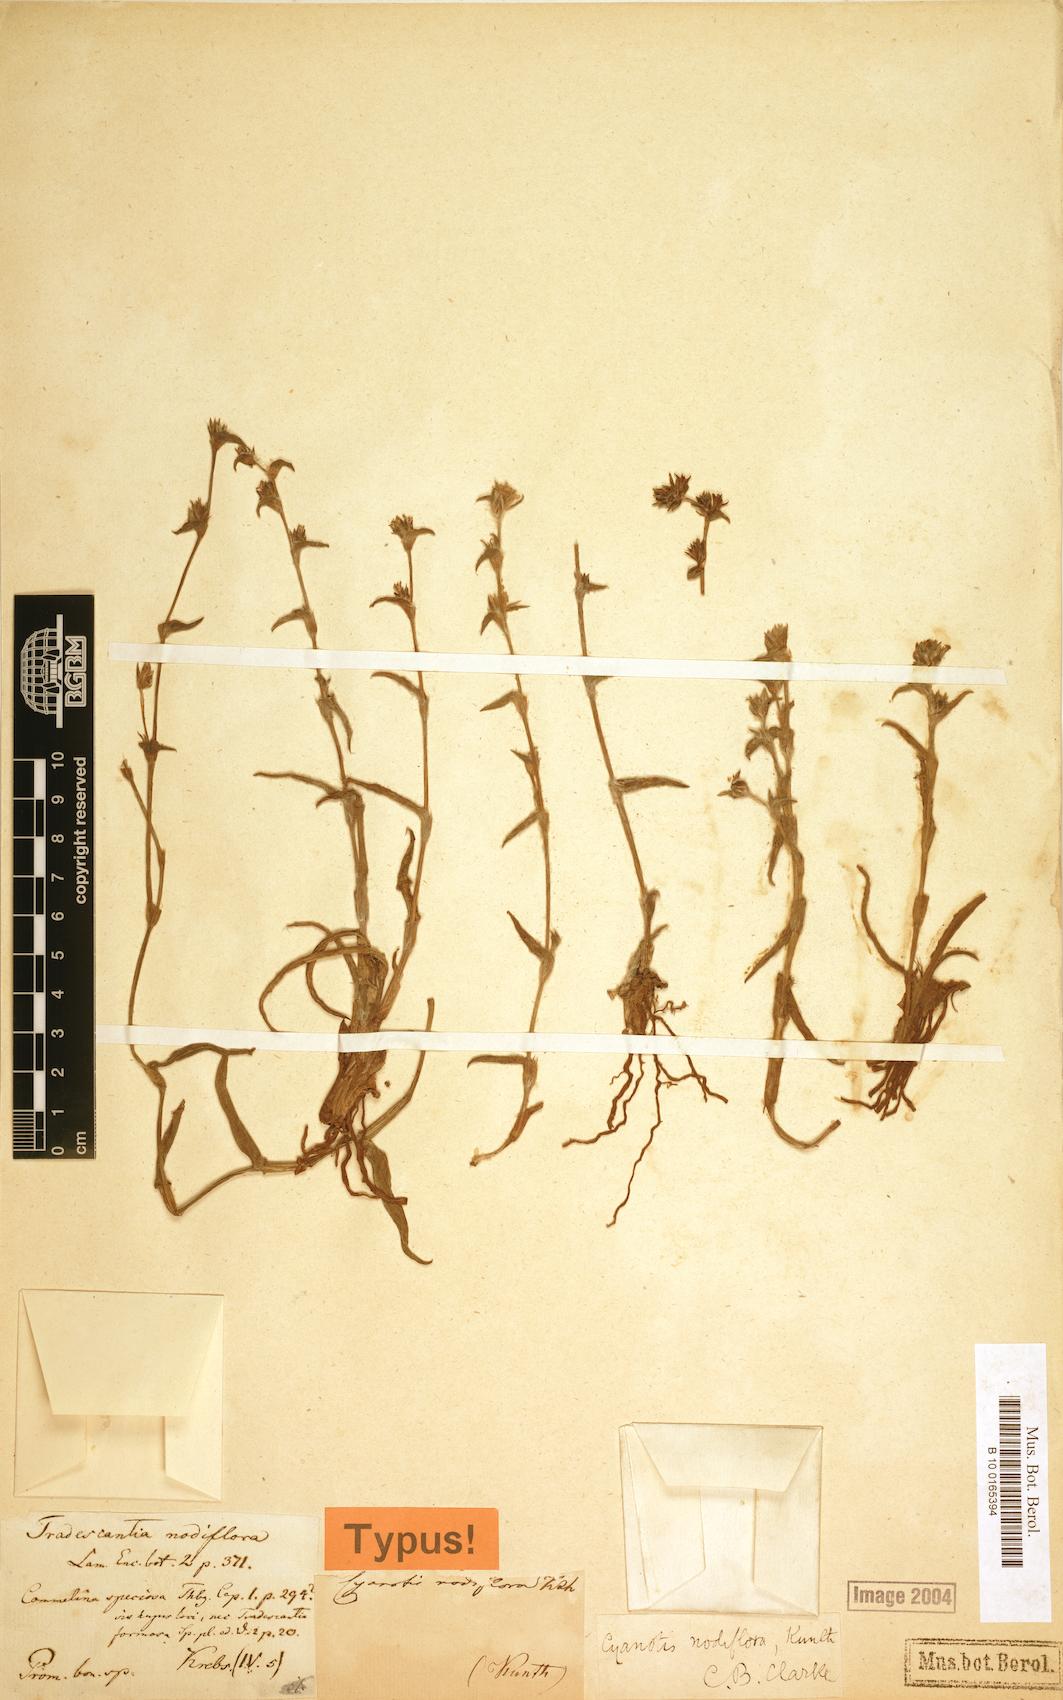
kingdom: Plantae
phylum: Tracheophyta
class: Liliopsida
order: Commelinales
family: Commelinaceae
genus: Cyanotis
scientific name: Cyanotis speciosa
